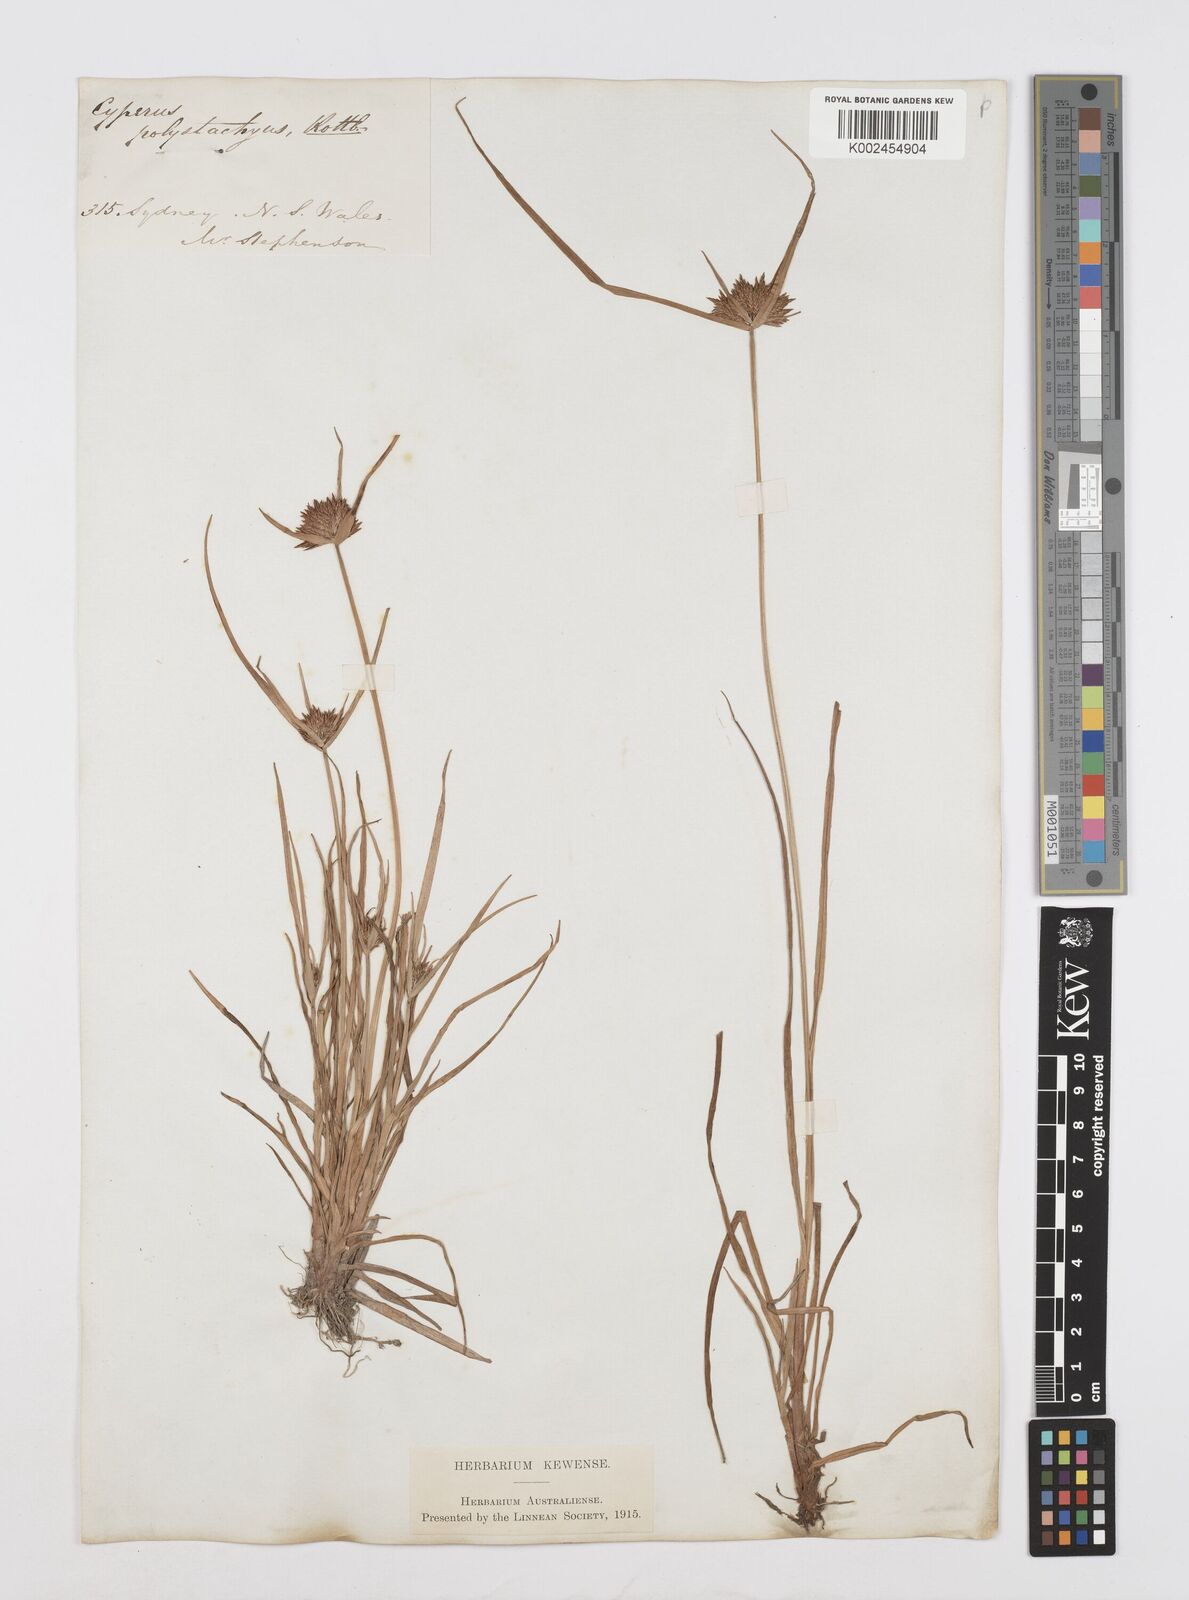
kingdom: Plantae
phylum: Tracheophyta
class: Liliopsida
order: Poales
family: Cyperaceae
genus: Cyperus
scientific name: Cyperus polystachyos
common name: Bunchy flat sedge
